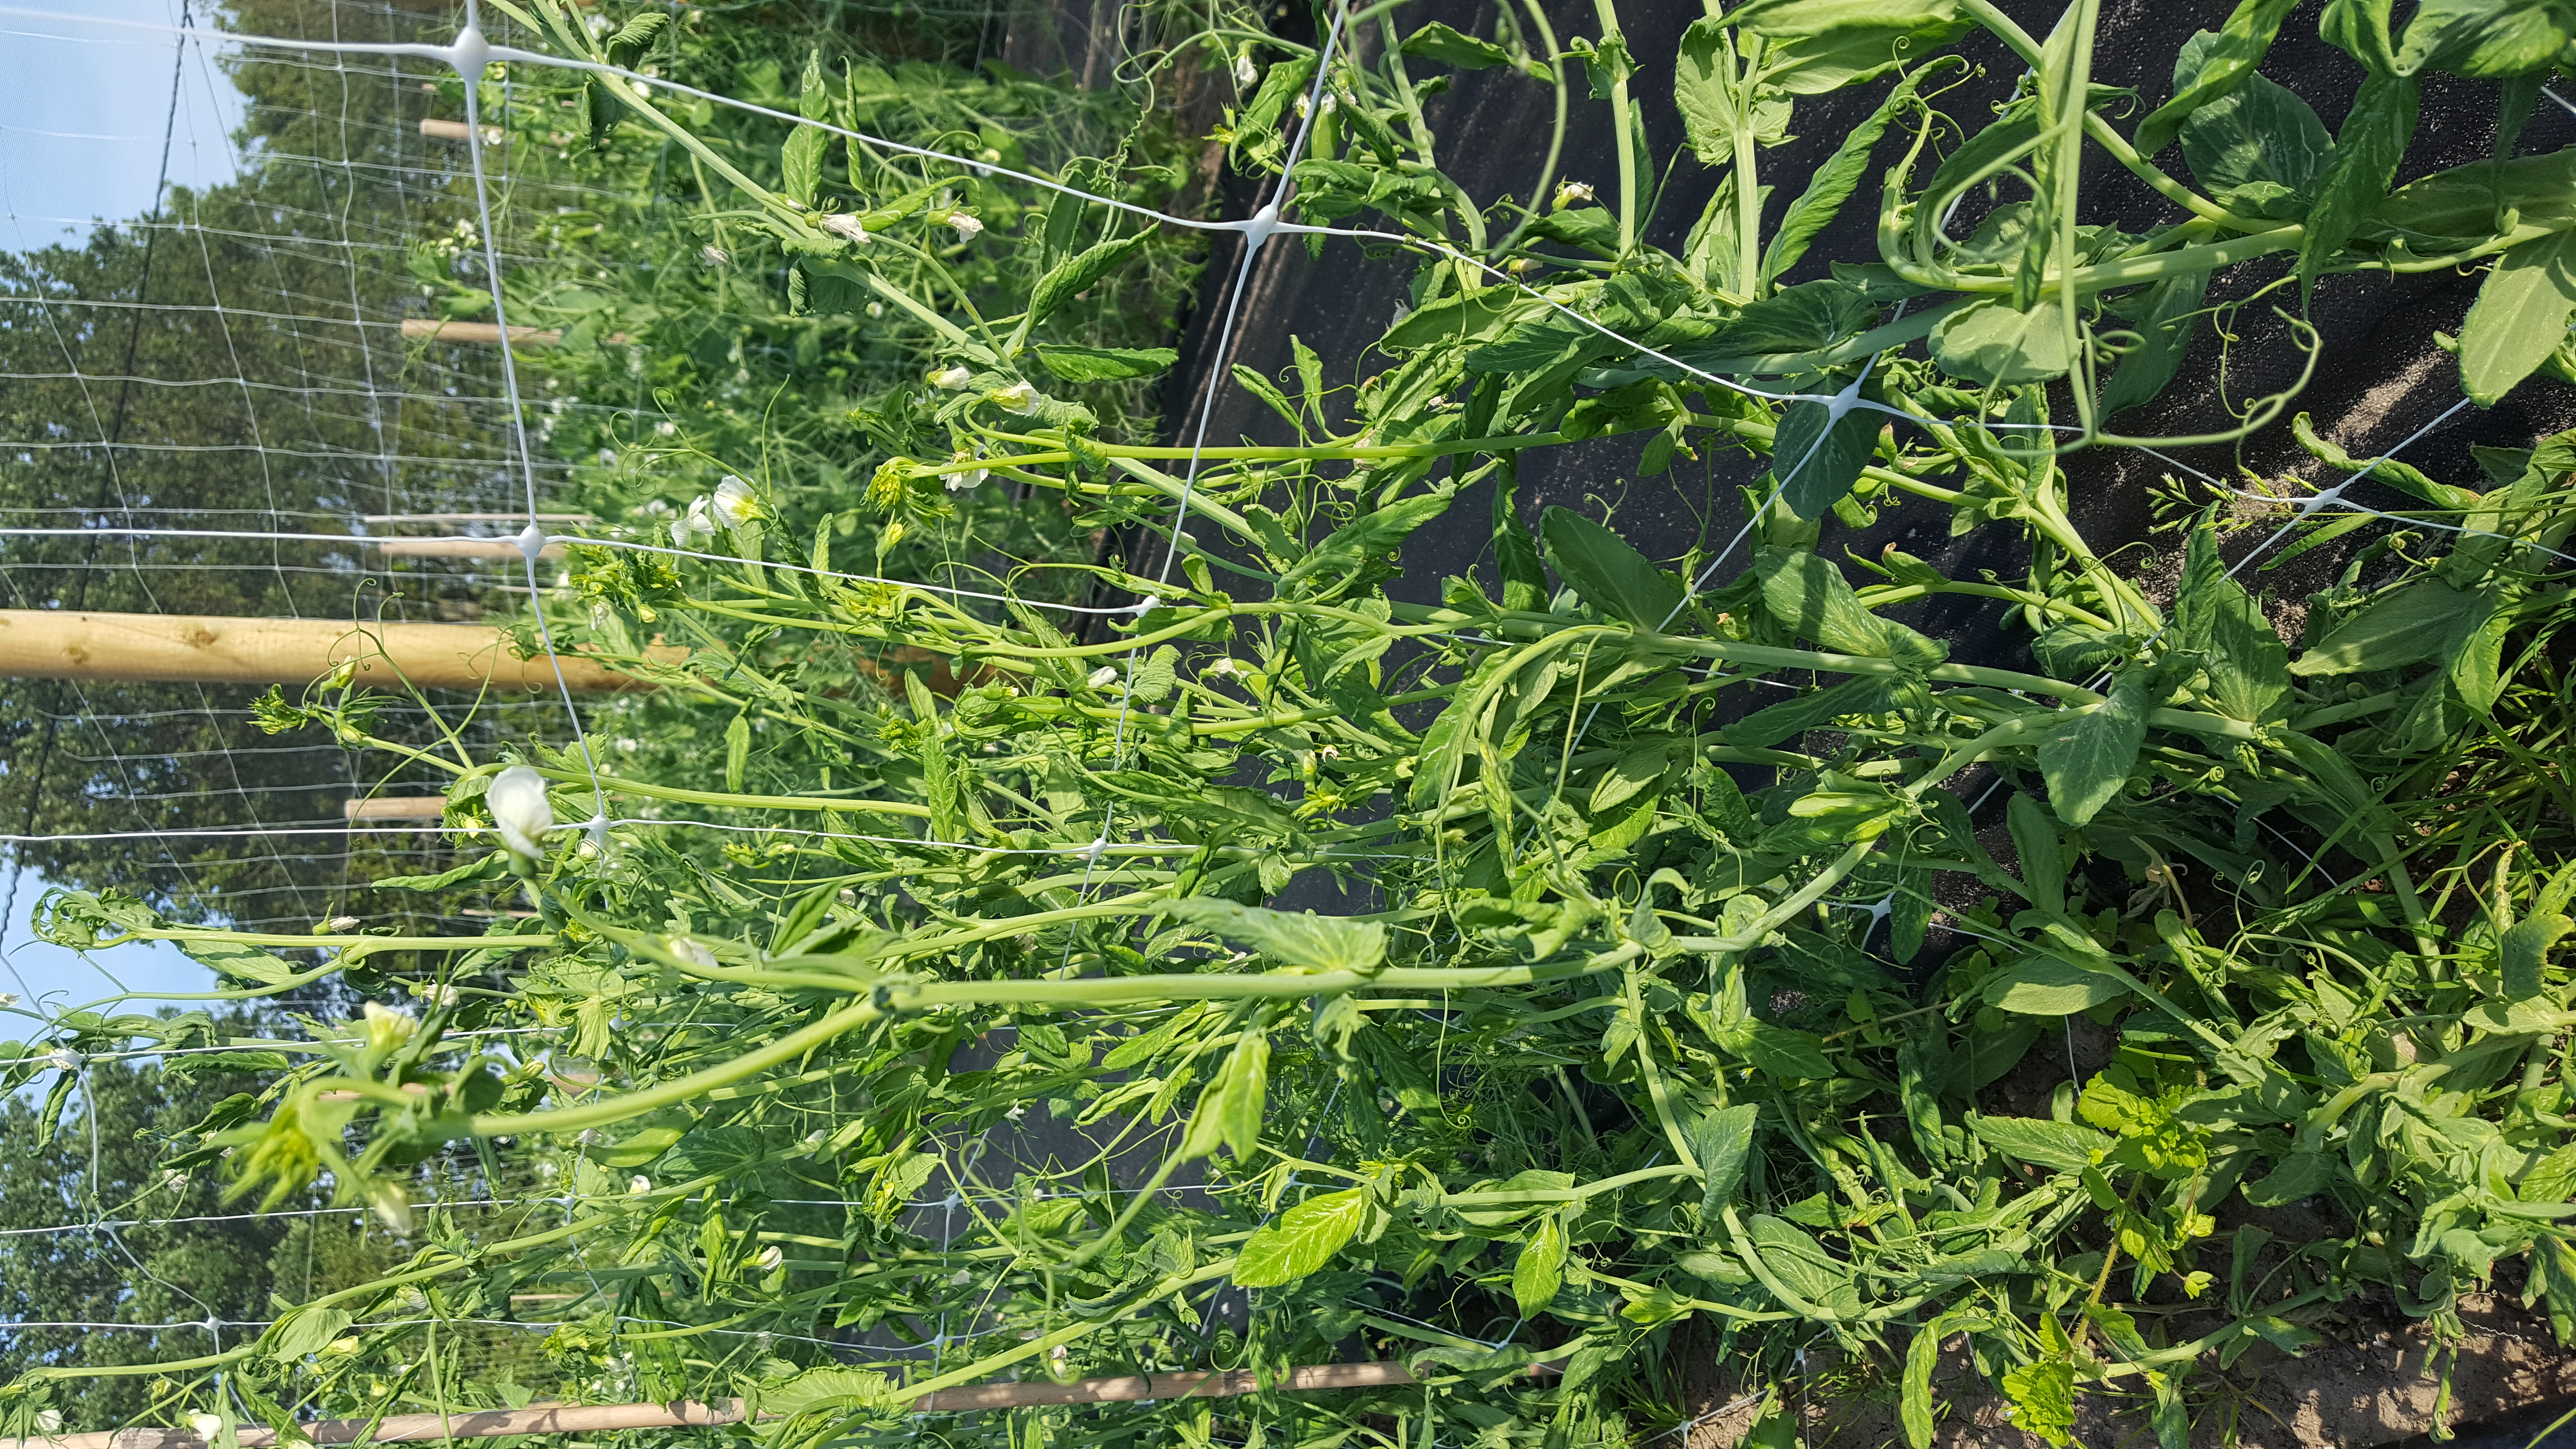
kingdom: Plantae
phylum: Tracheophyta
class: Magnoliopsida
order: Fabales
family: Fabaceae
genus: Lathyrus
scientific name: Lathyrus oleraceus
